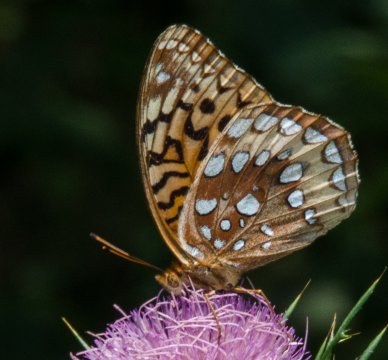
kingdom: Animalia
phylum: Arthropoda
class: Insecta
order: Lepidoptera
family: Nymphalidae
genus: Speyeria
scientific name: Speyeria cybele
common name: Great Spangled Fritillary
